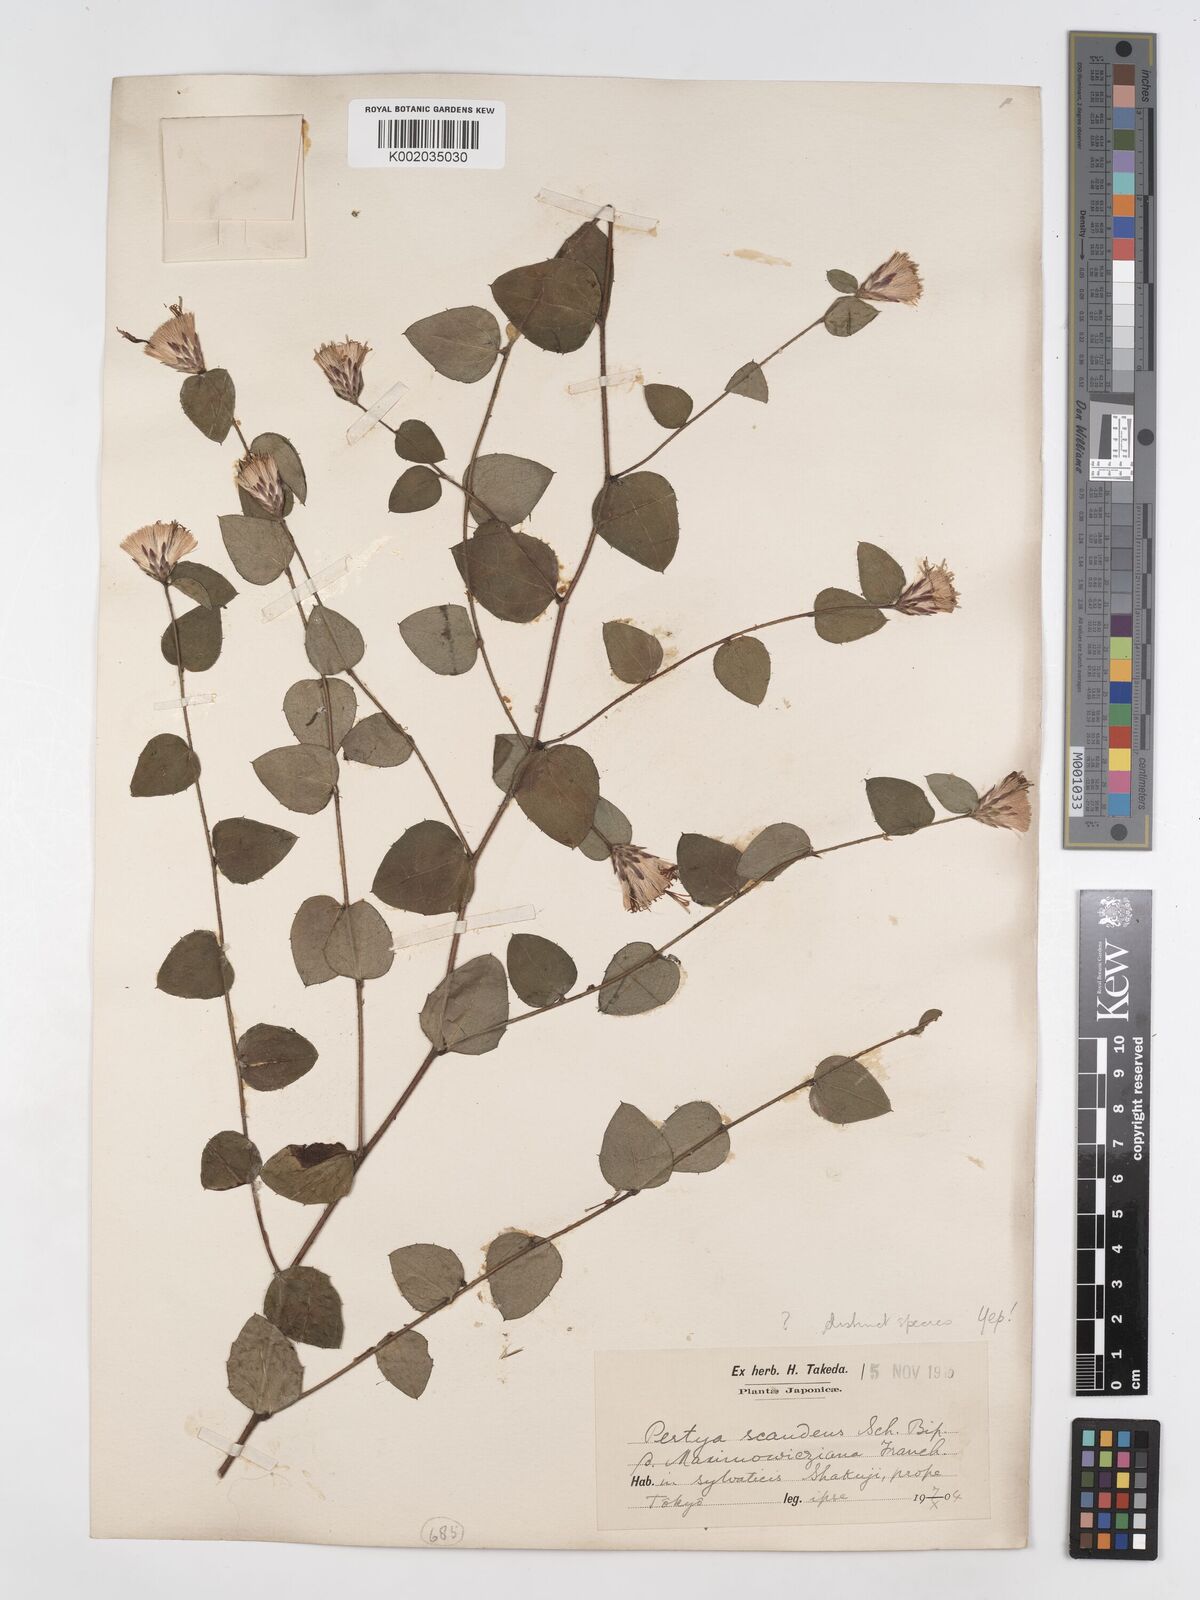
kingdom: Plantae
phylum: Tracheophyta
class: Magnoliopsida
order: Asterales
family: Asteraceae
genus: Pertya
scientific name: Pertya scandens
